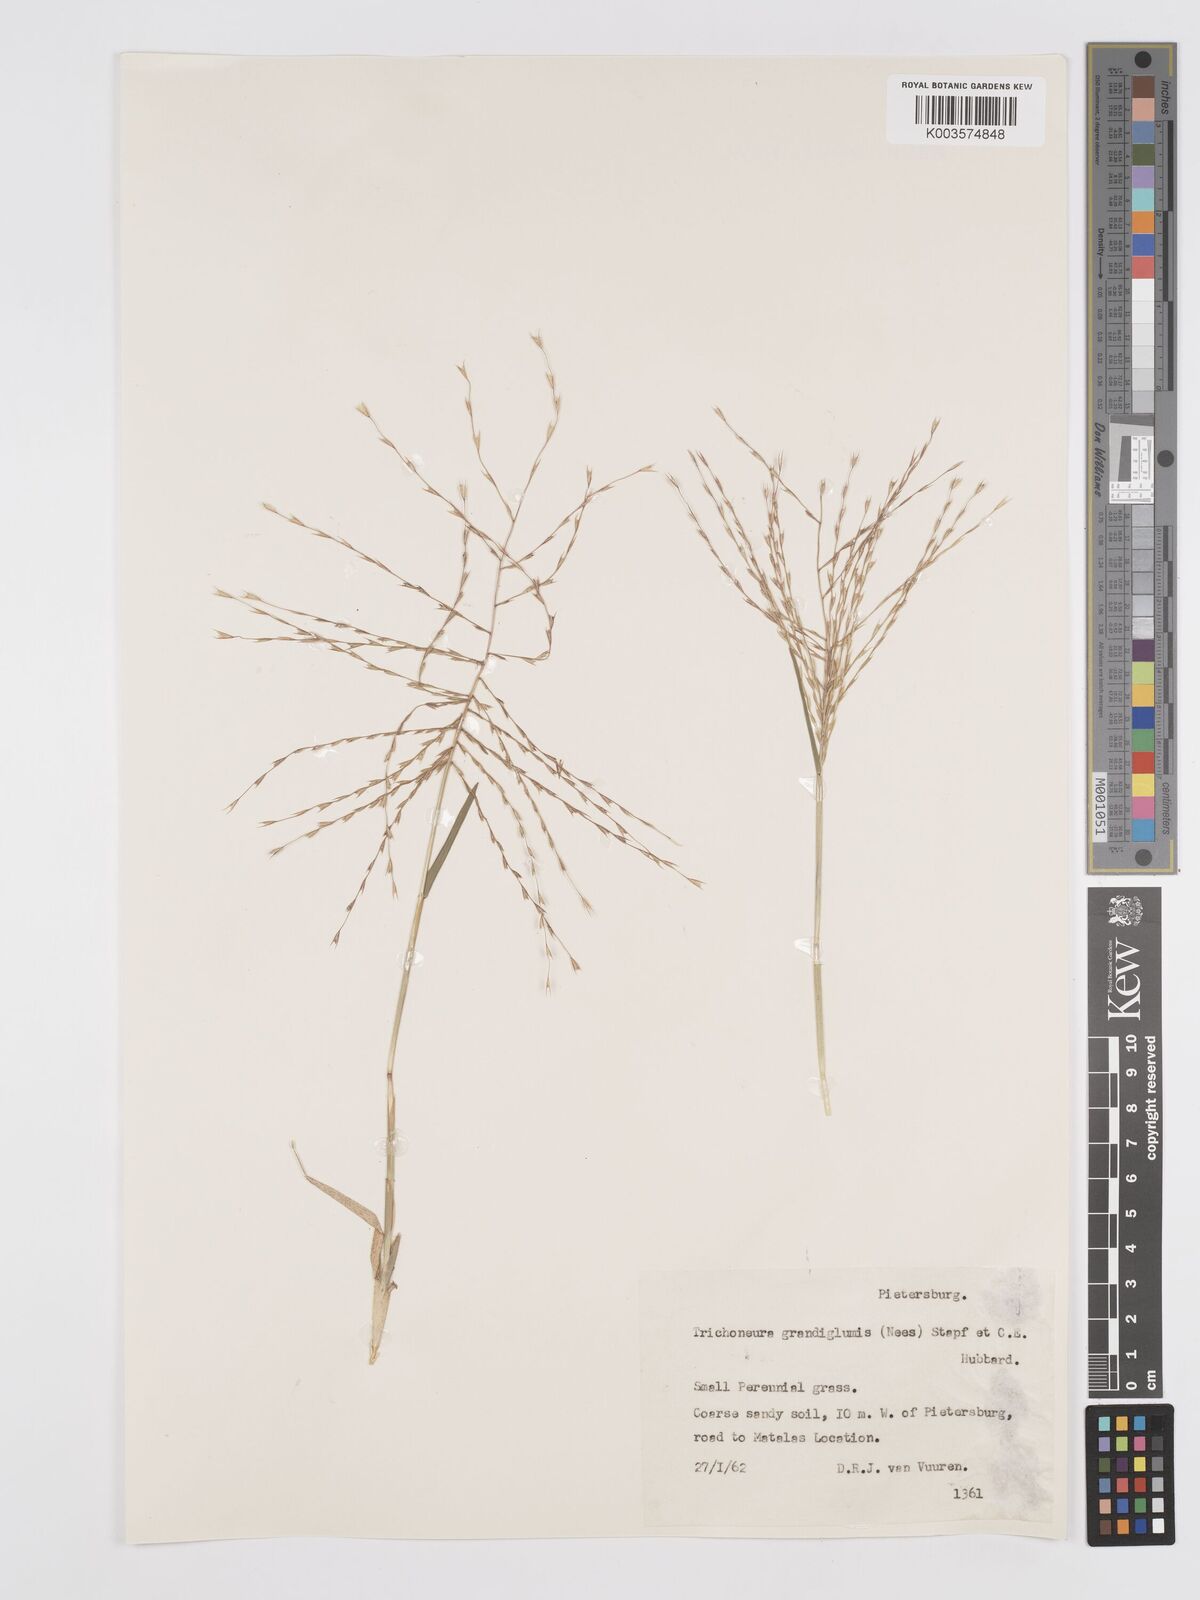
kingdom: Plantae
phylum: Tracheophyta
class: Liliopsida
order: Poales
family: Poaceae
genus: Trichoneura
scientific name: Trichoneura grandiglumis
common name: Rolling grass
